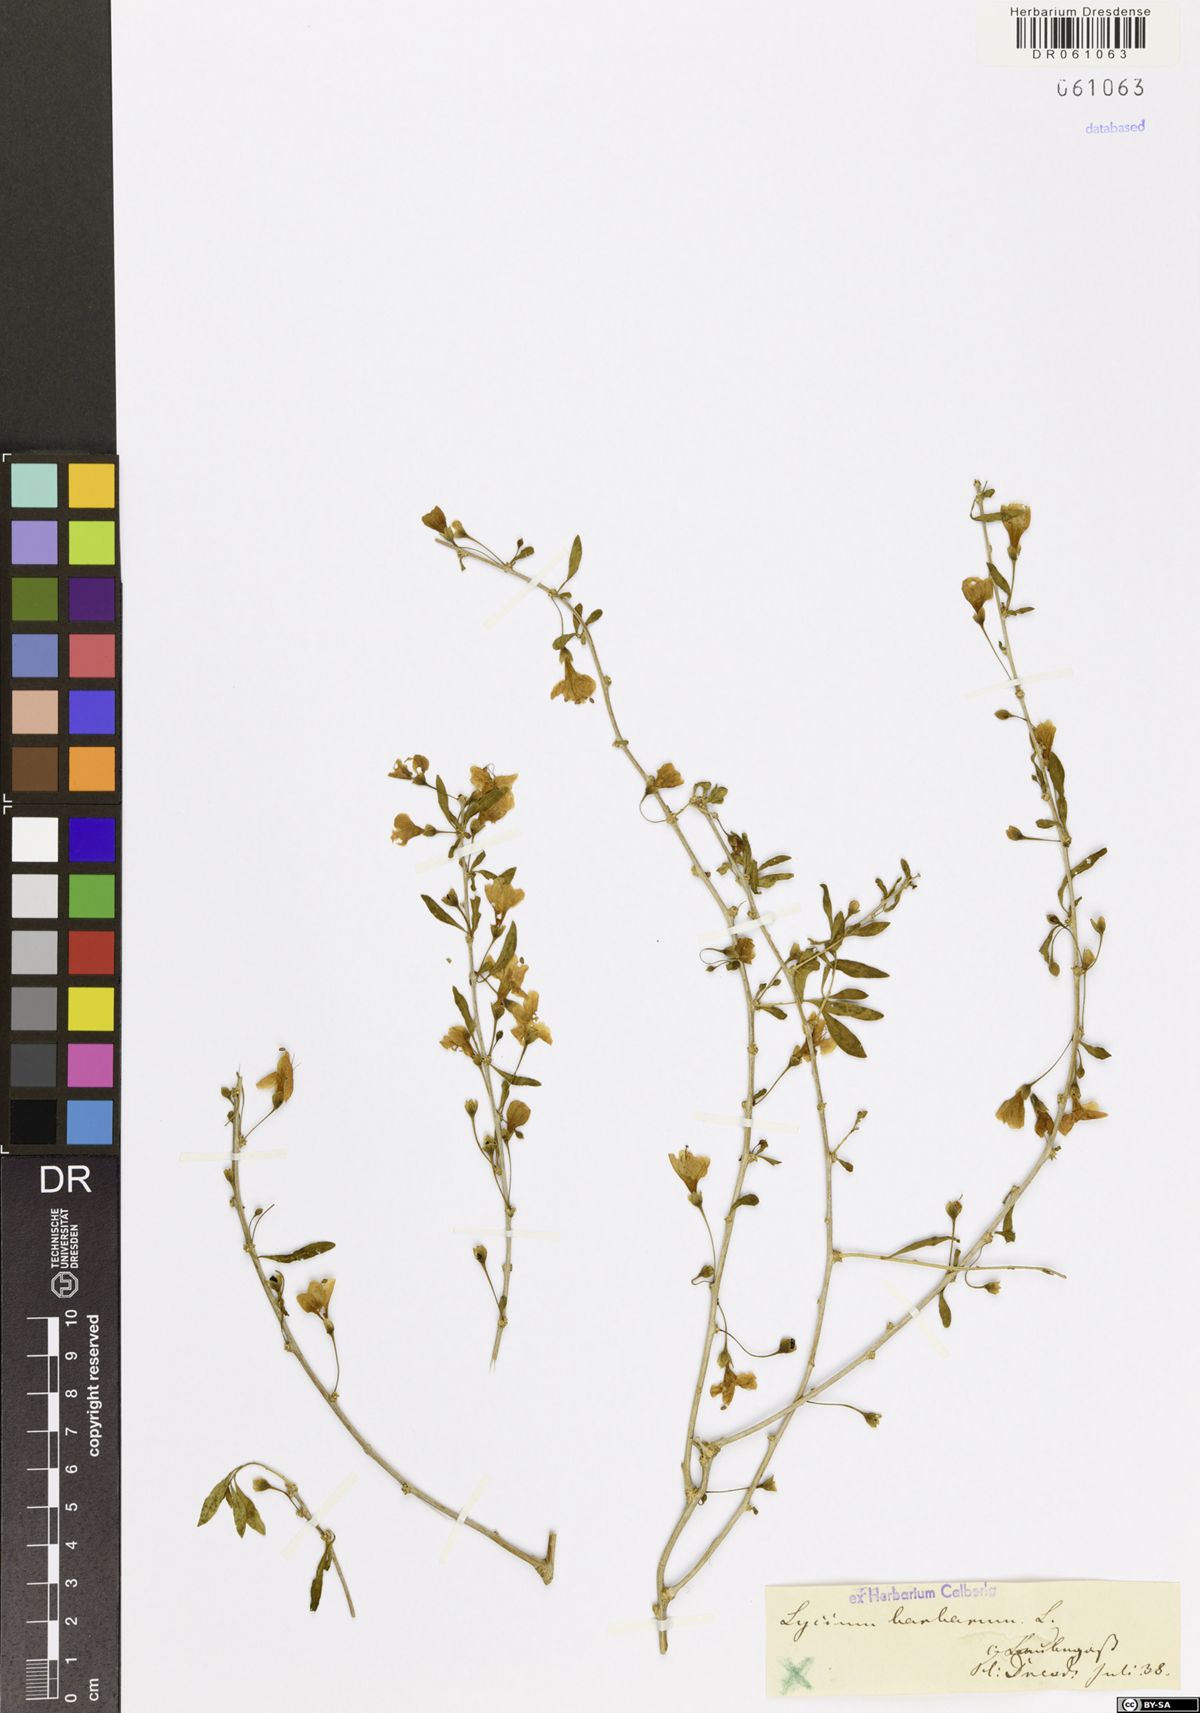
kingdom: Plantae
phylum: Tracheophyta
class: Magnoliopsida
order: Solanales
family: Solanaceae
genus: Lycium
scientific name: Lycium barbarum
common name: Duke of argyll's teaplant
